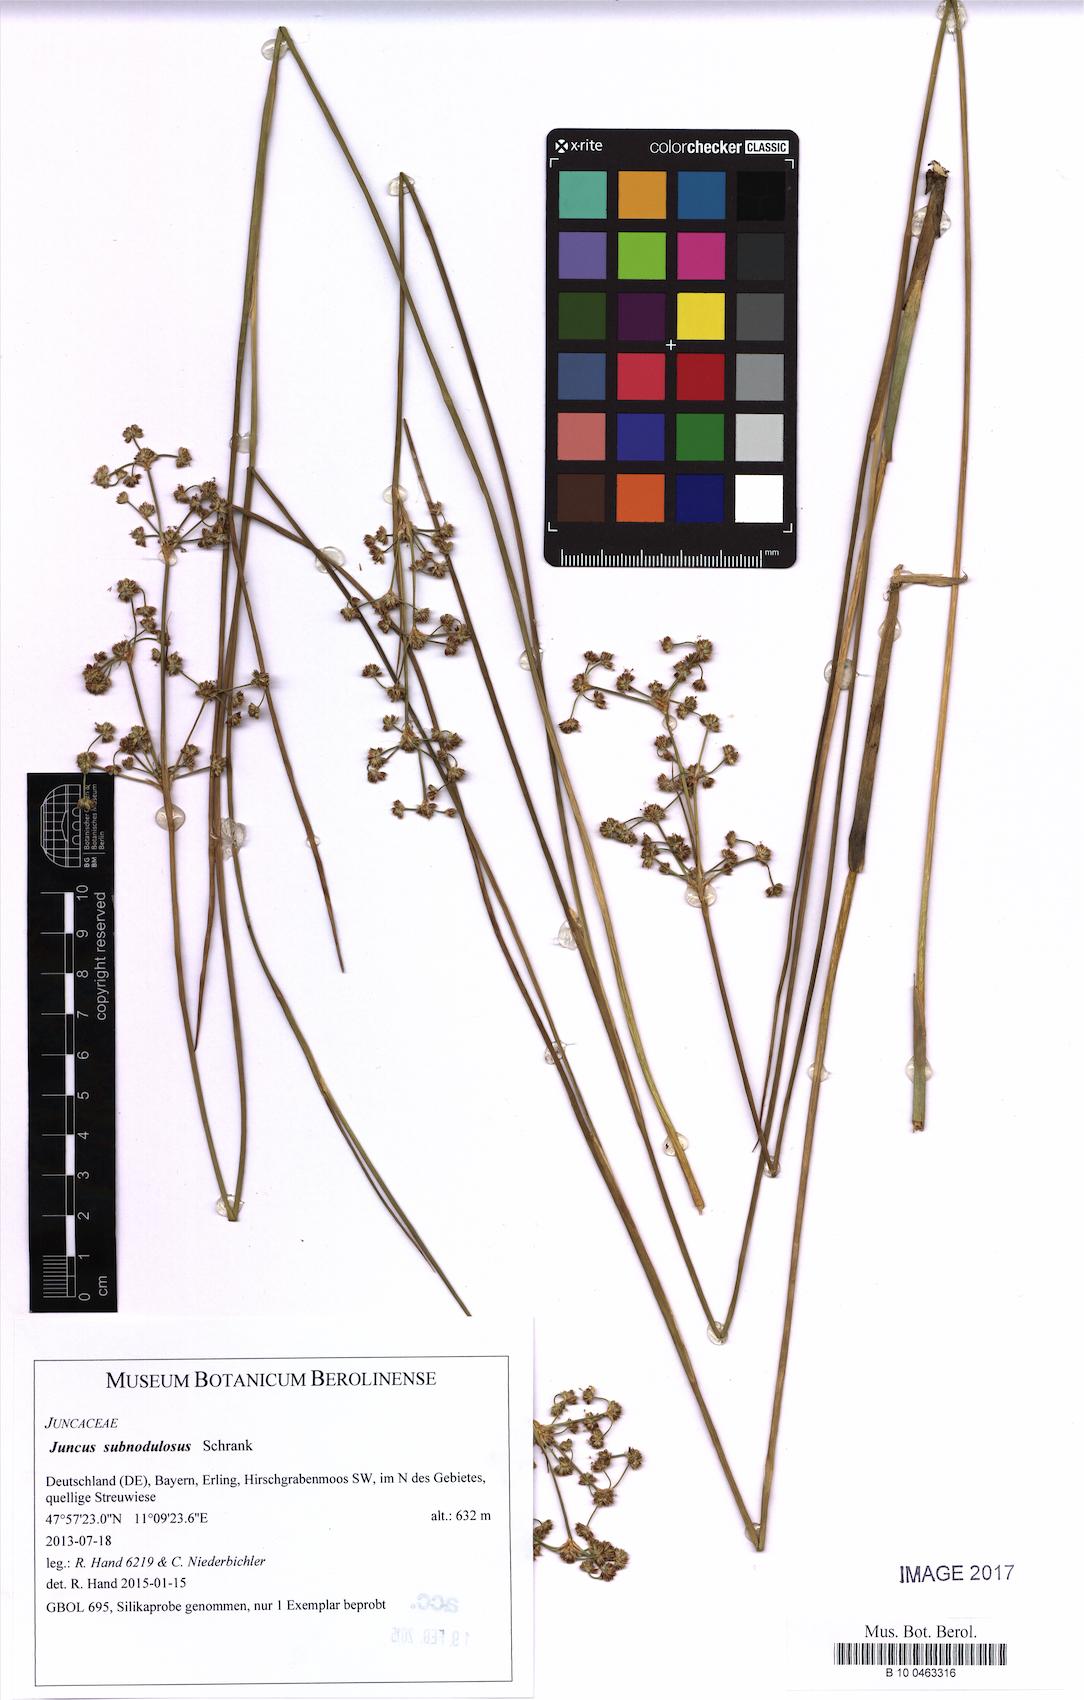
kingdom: Plantae
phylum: Tracheophyta
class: Liliopsida
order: Poales
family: Juncaceae
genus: Juncus
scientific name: Juncus subnodulosus
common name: Blunt-flowered rush
